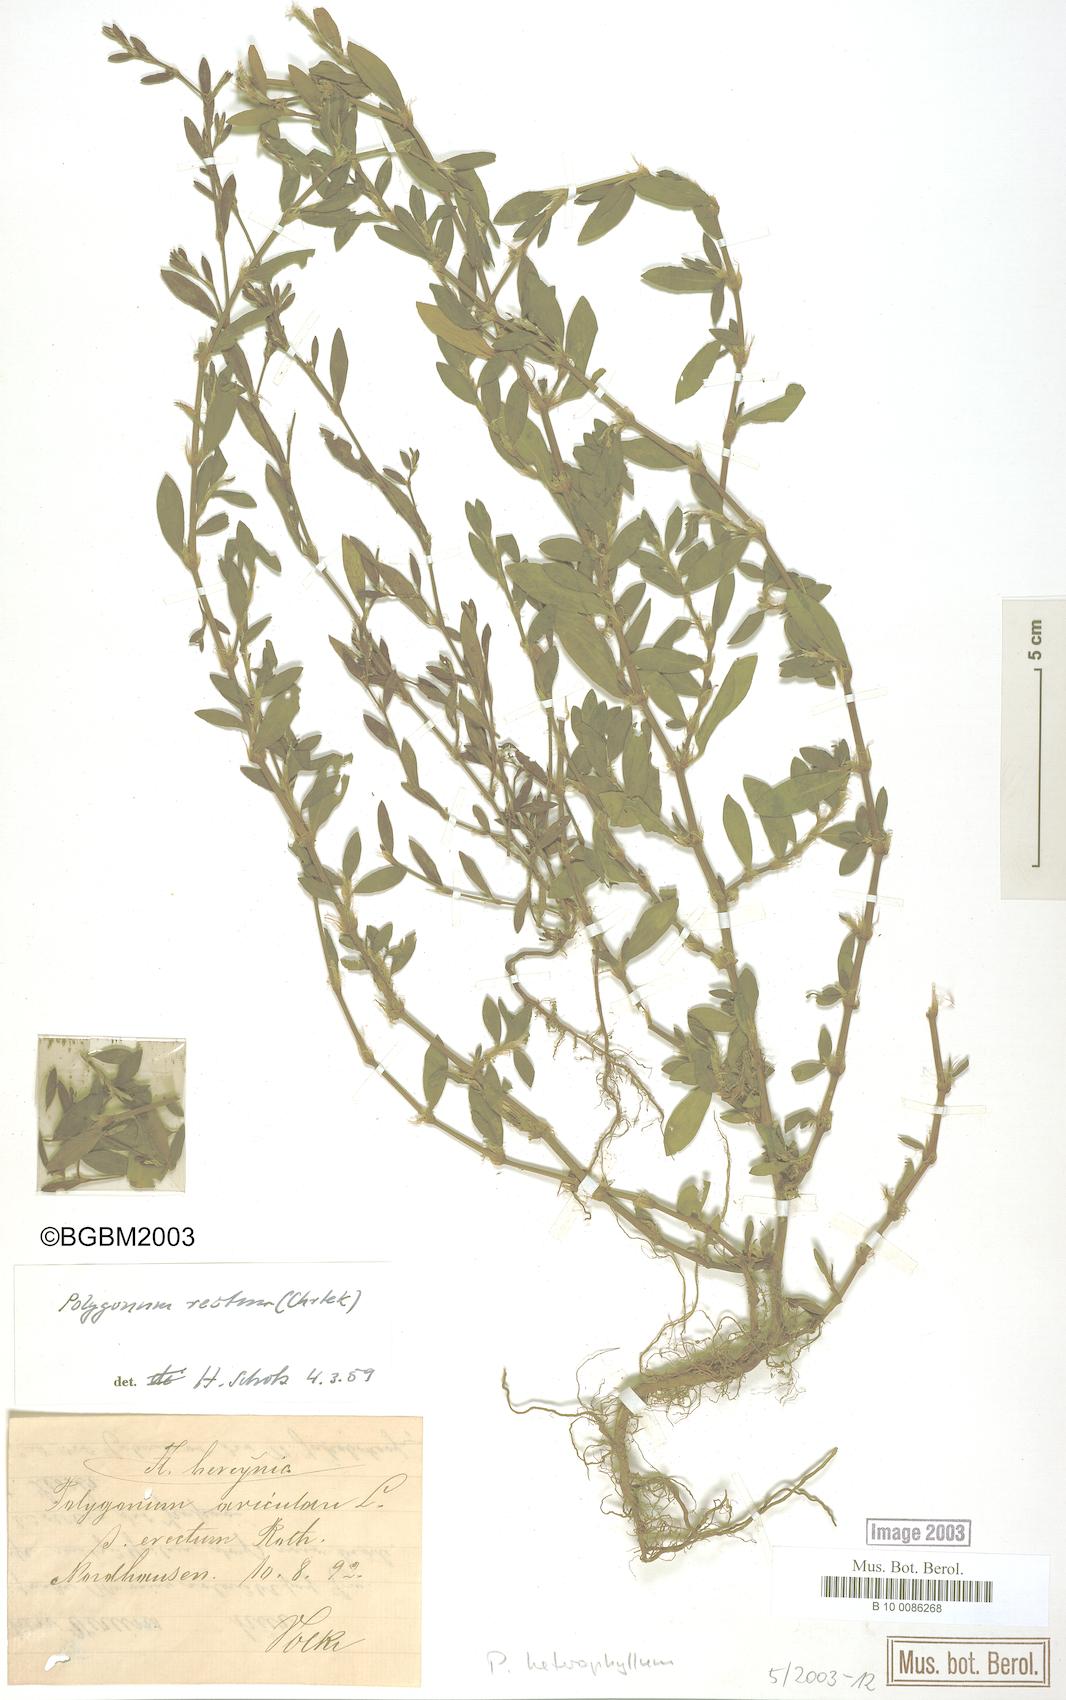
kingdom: Plantae
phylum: Tracheophyta
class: Magnoliopsida
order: Caryophyllales
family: Polygonaceae
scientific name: Polygonaceae
